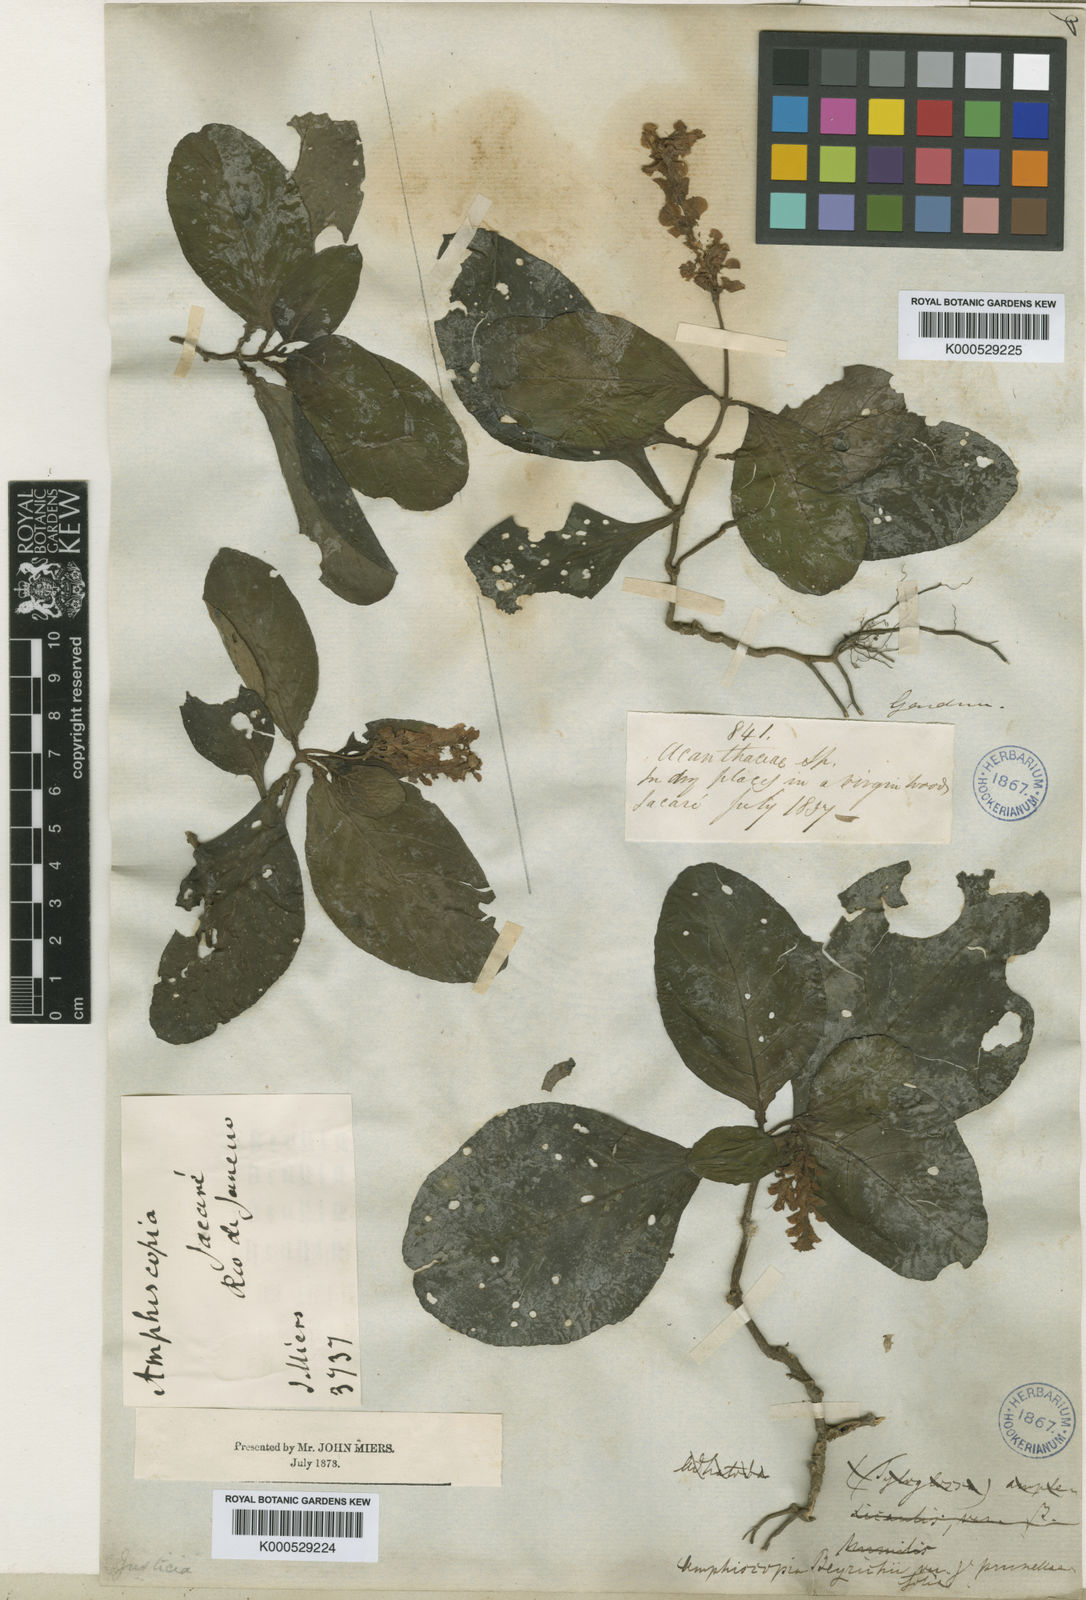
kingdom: Plantae
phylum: Tracheophyta
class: Magnoliopsida
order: Lamiales
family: Acanthaceae
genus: Dianthera
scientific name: Dianthera brasiliensis
